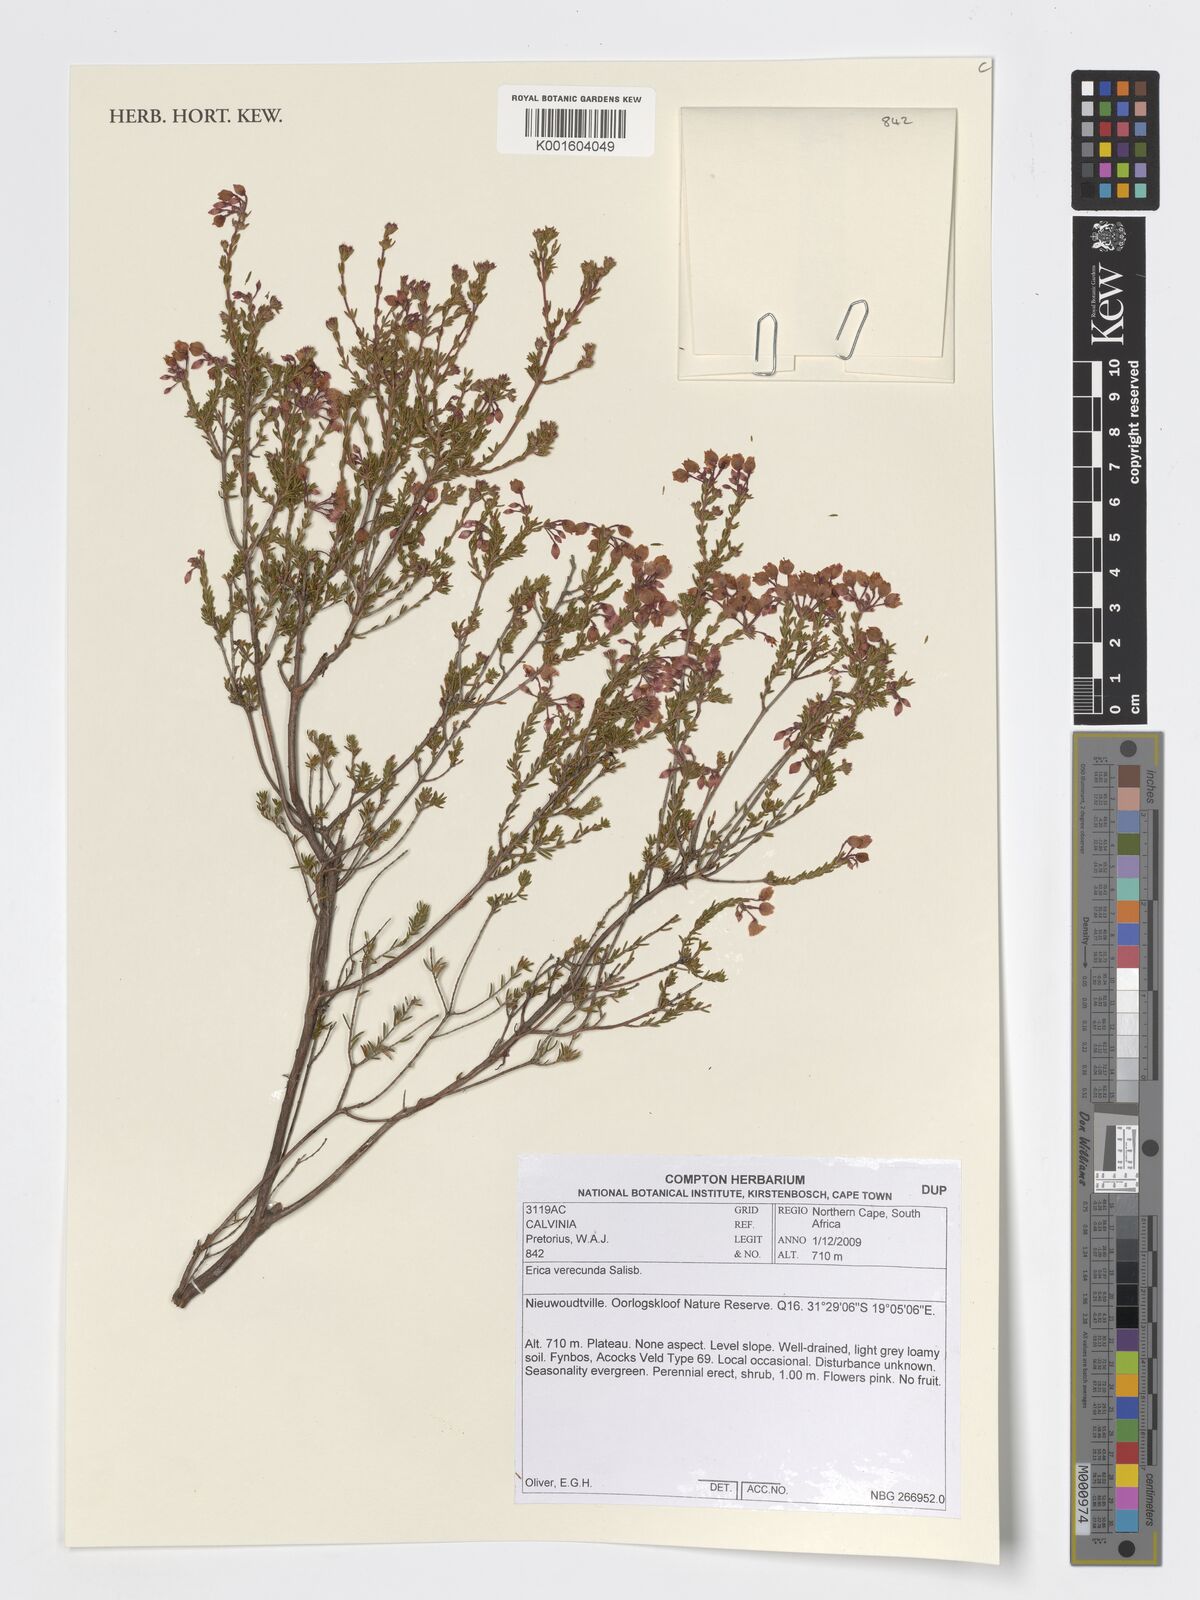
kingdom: Plantae
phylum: Tracheophyta
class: Magnoliopsida
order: Ericales
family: Ericaceae
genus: Erica
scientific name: Erica verecunda
